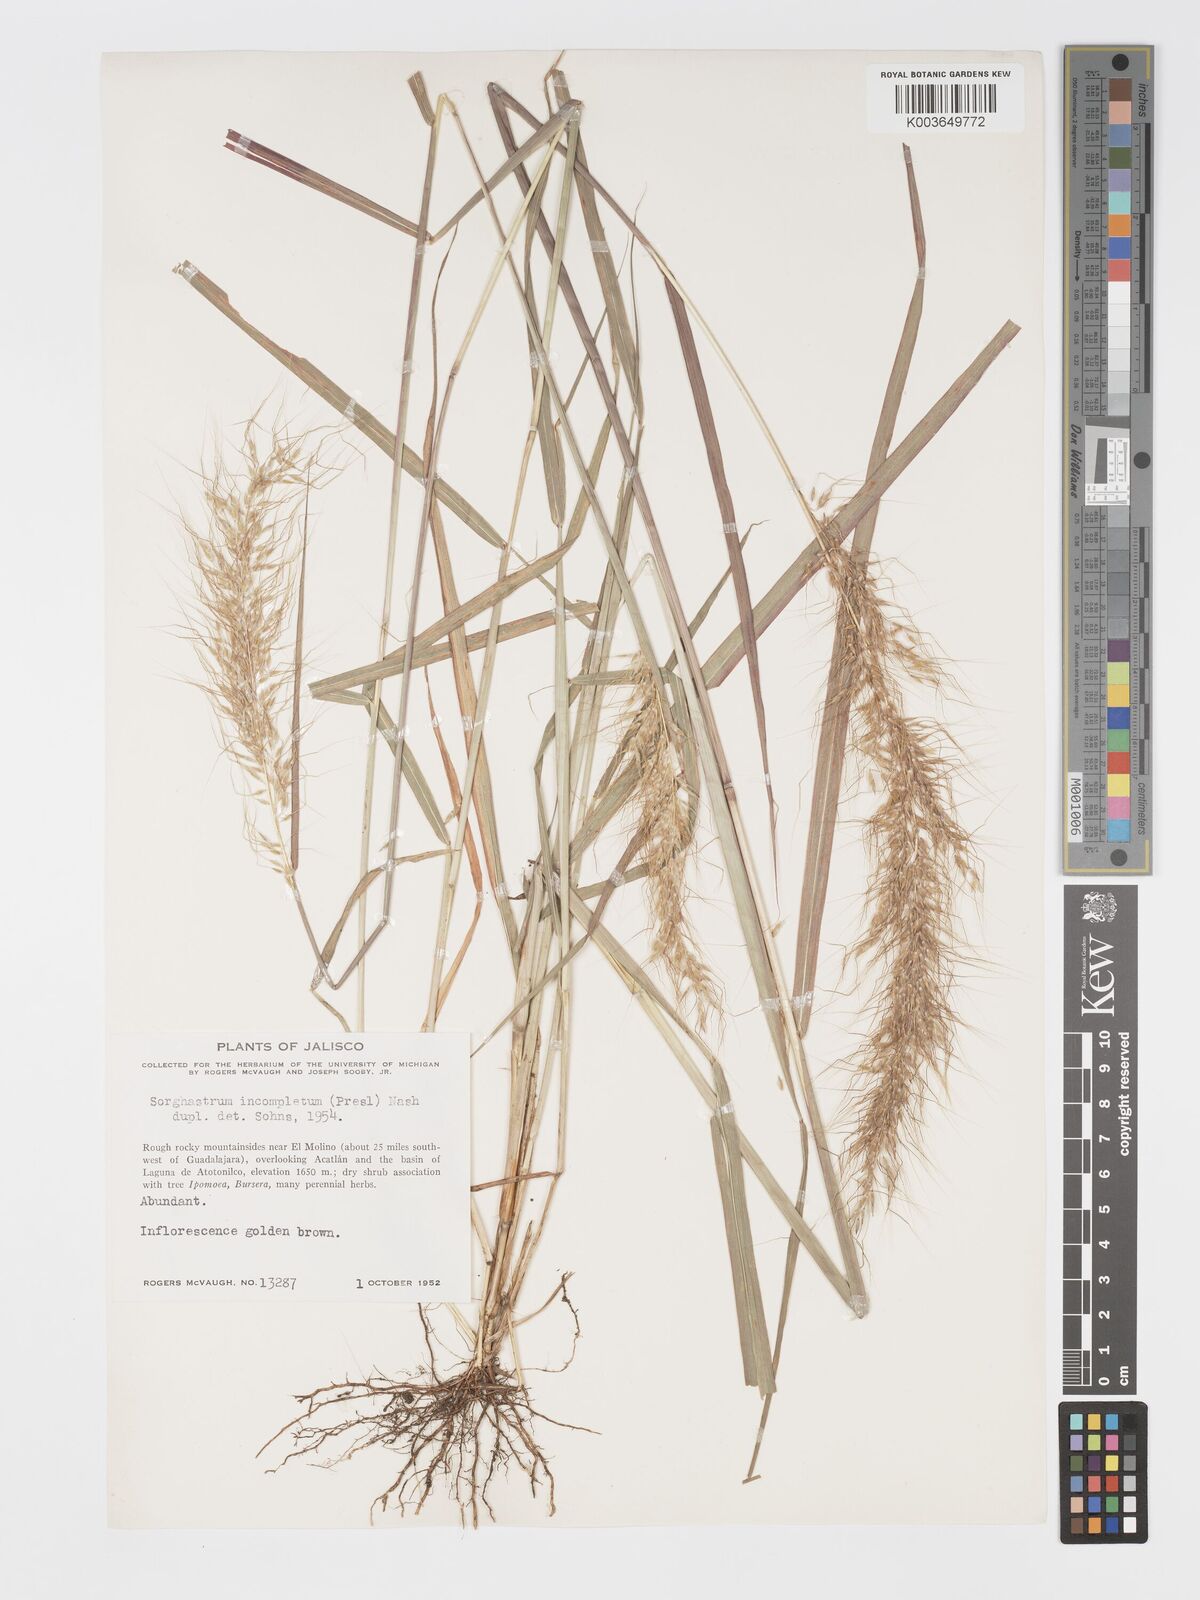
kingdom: Plantae
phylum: Tracheophyta
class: Liliopsida
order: Poales
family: Poaceae
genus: Sorghastrum
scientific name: Sorghastrum incompletum
